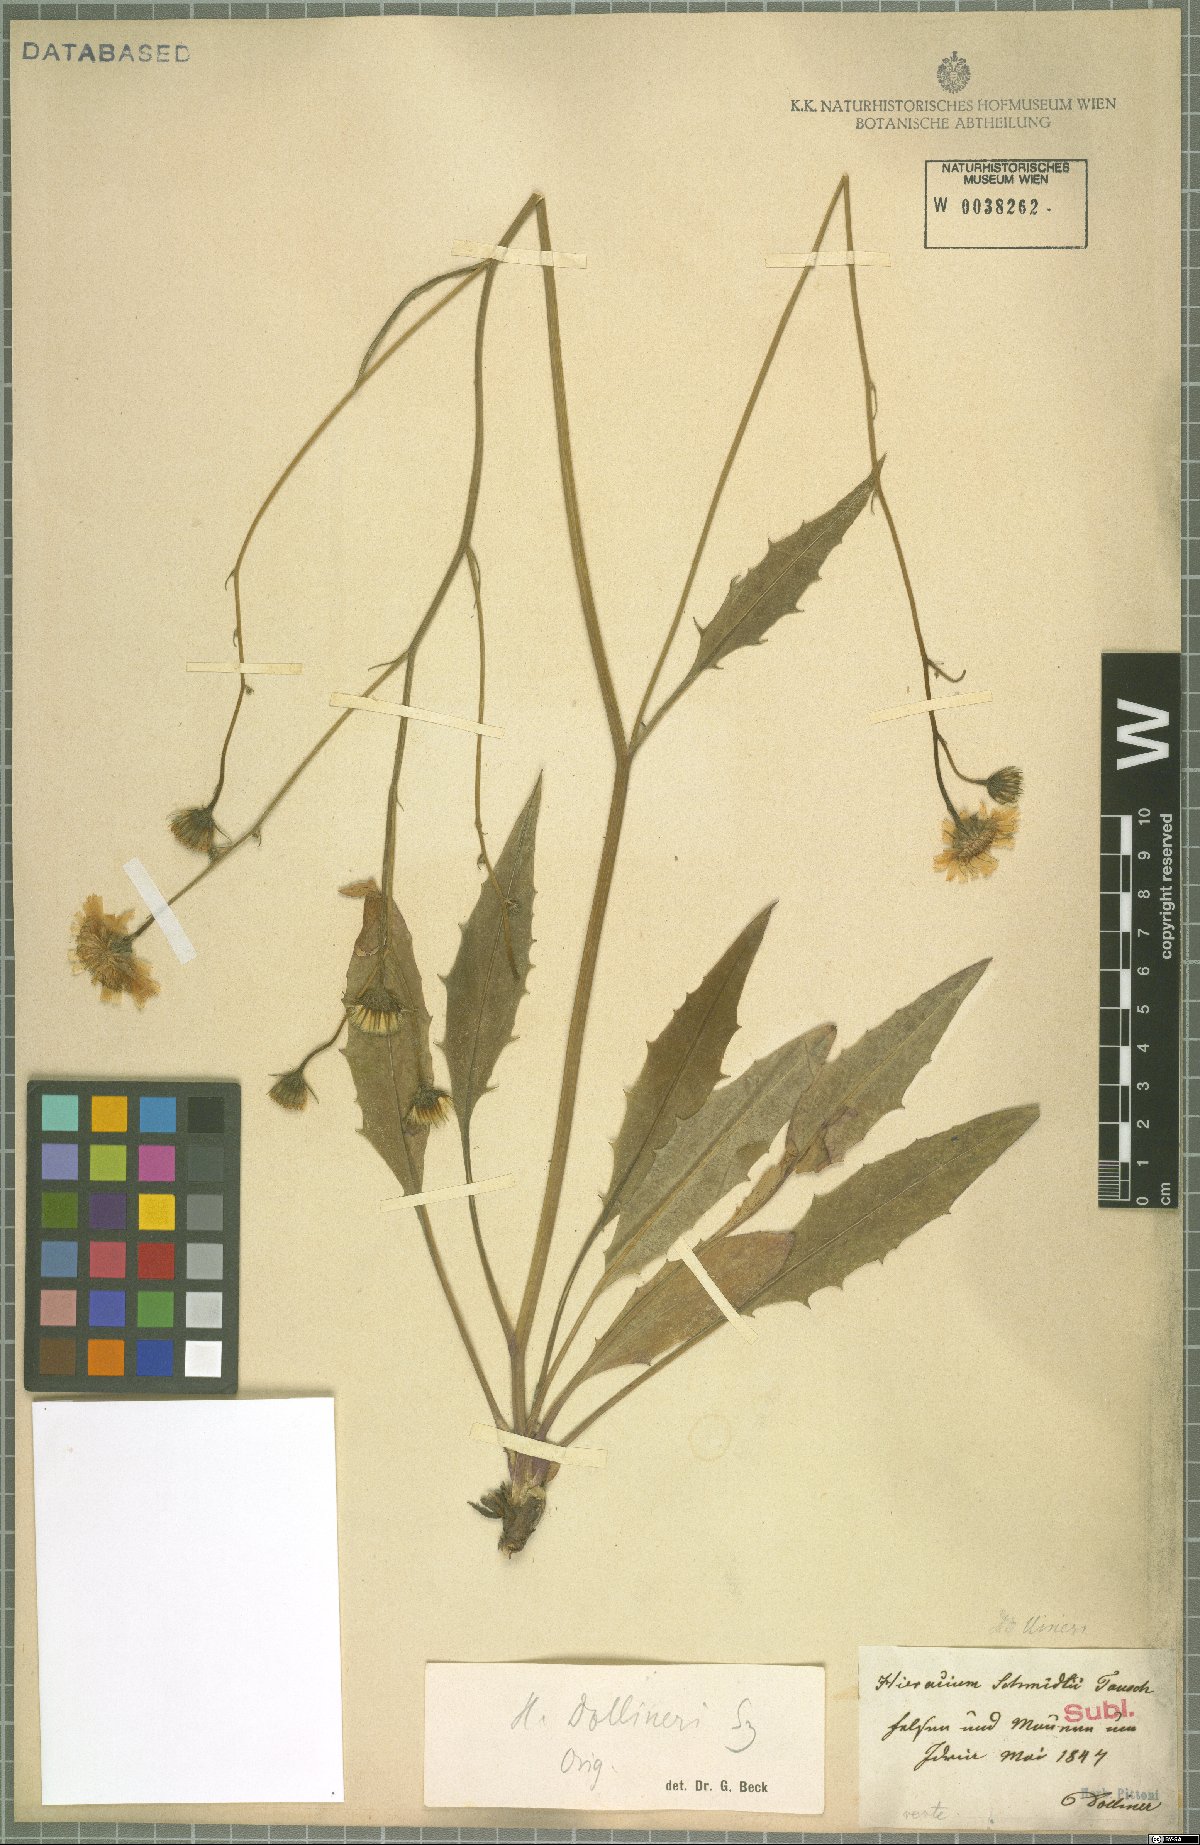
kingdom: Plantae
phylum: Tracheophyta
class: Magnoliopsida
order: Asterales
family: Asteraceae
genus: Hieracium
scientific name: Hieracium dollineri
